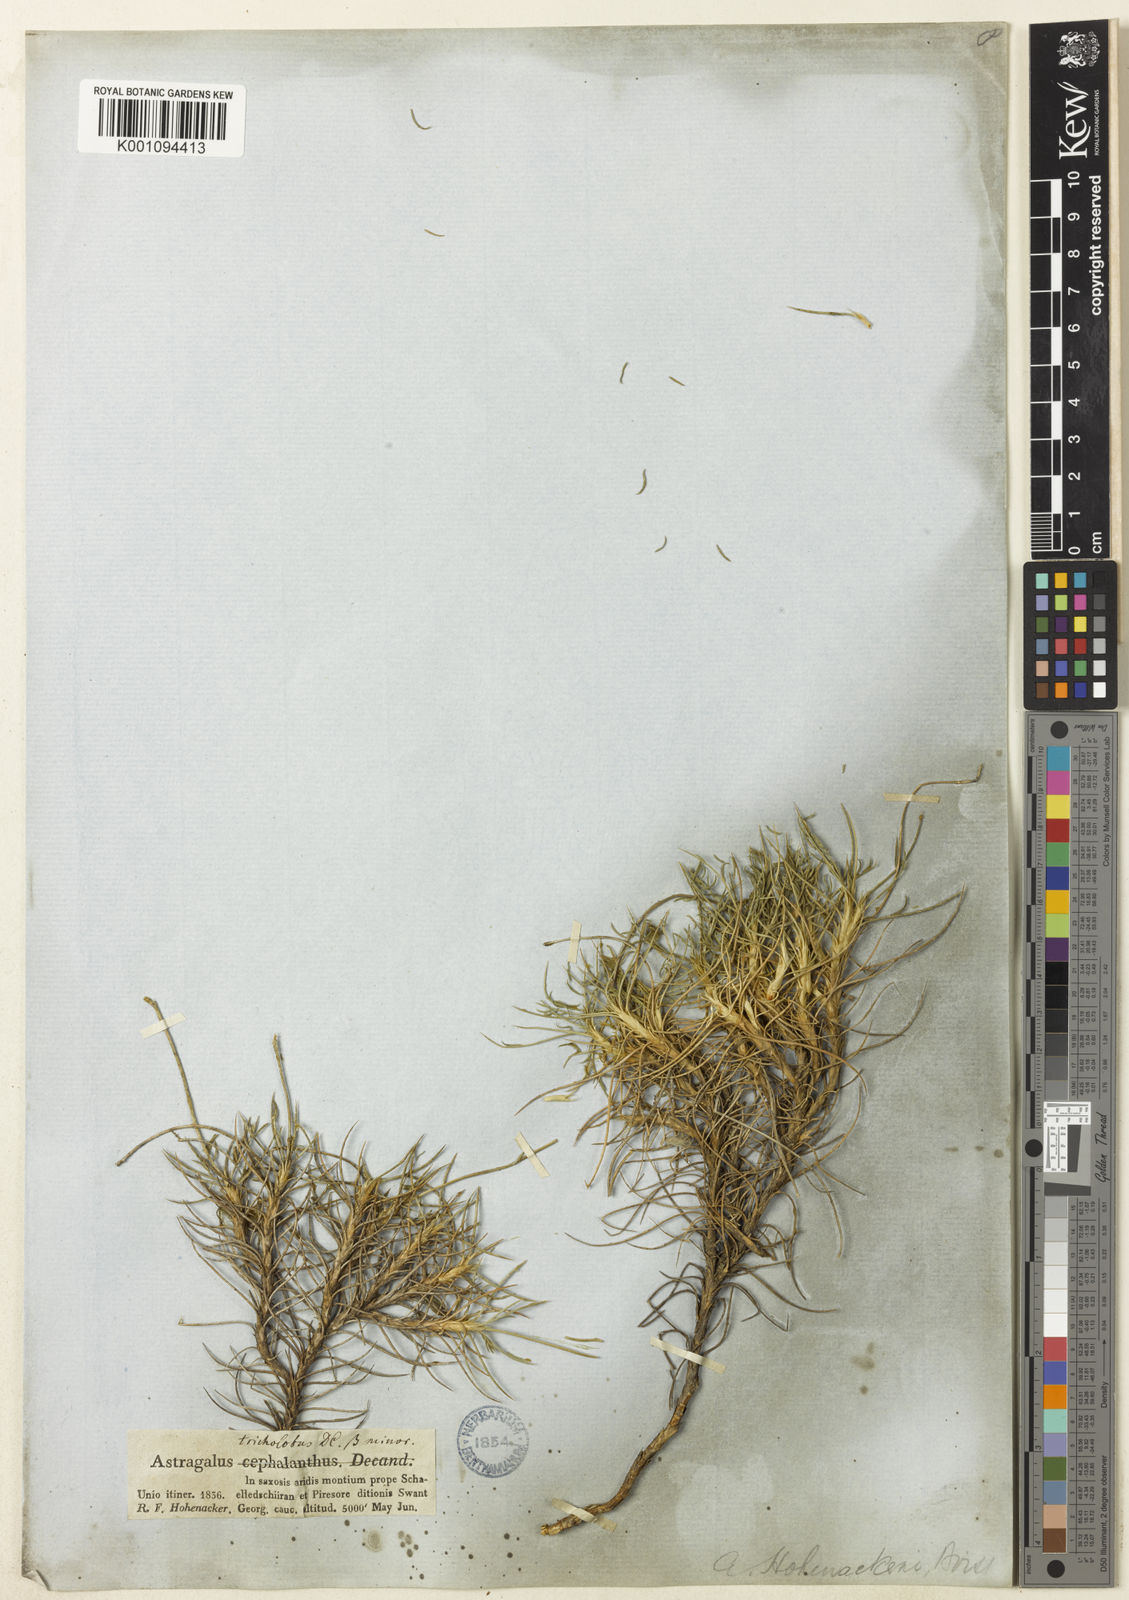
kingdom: Plantae
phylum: Tracheophyta
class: Magnoliopsida
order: Fabales
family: Fabaceae
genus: Astragalus
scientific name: Astragalus
